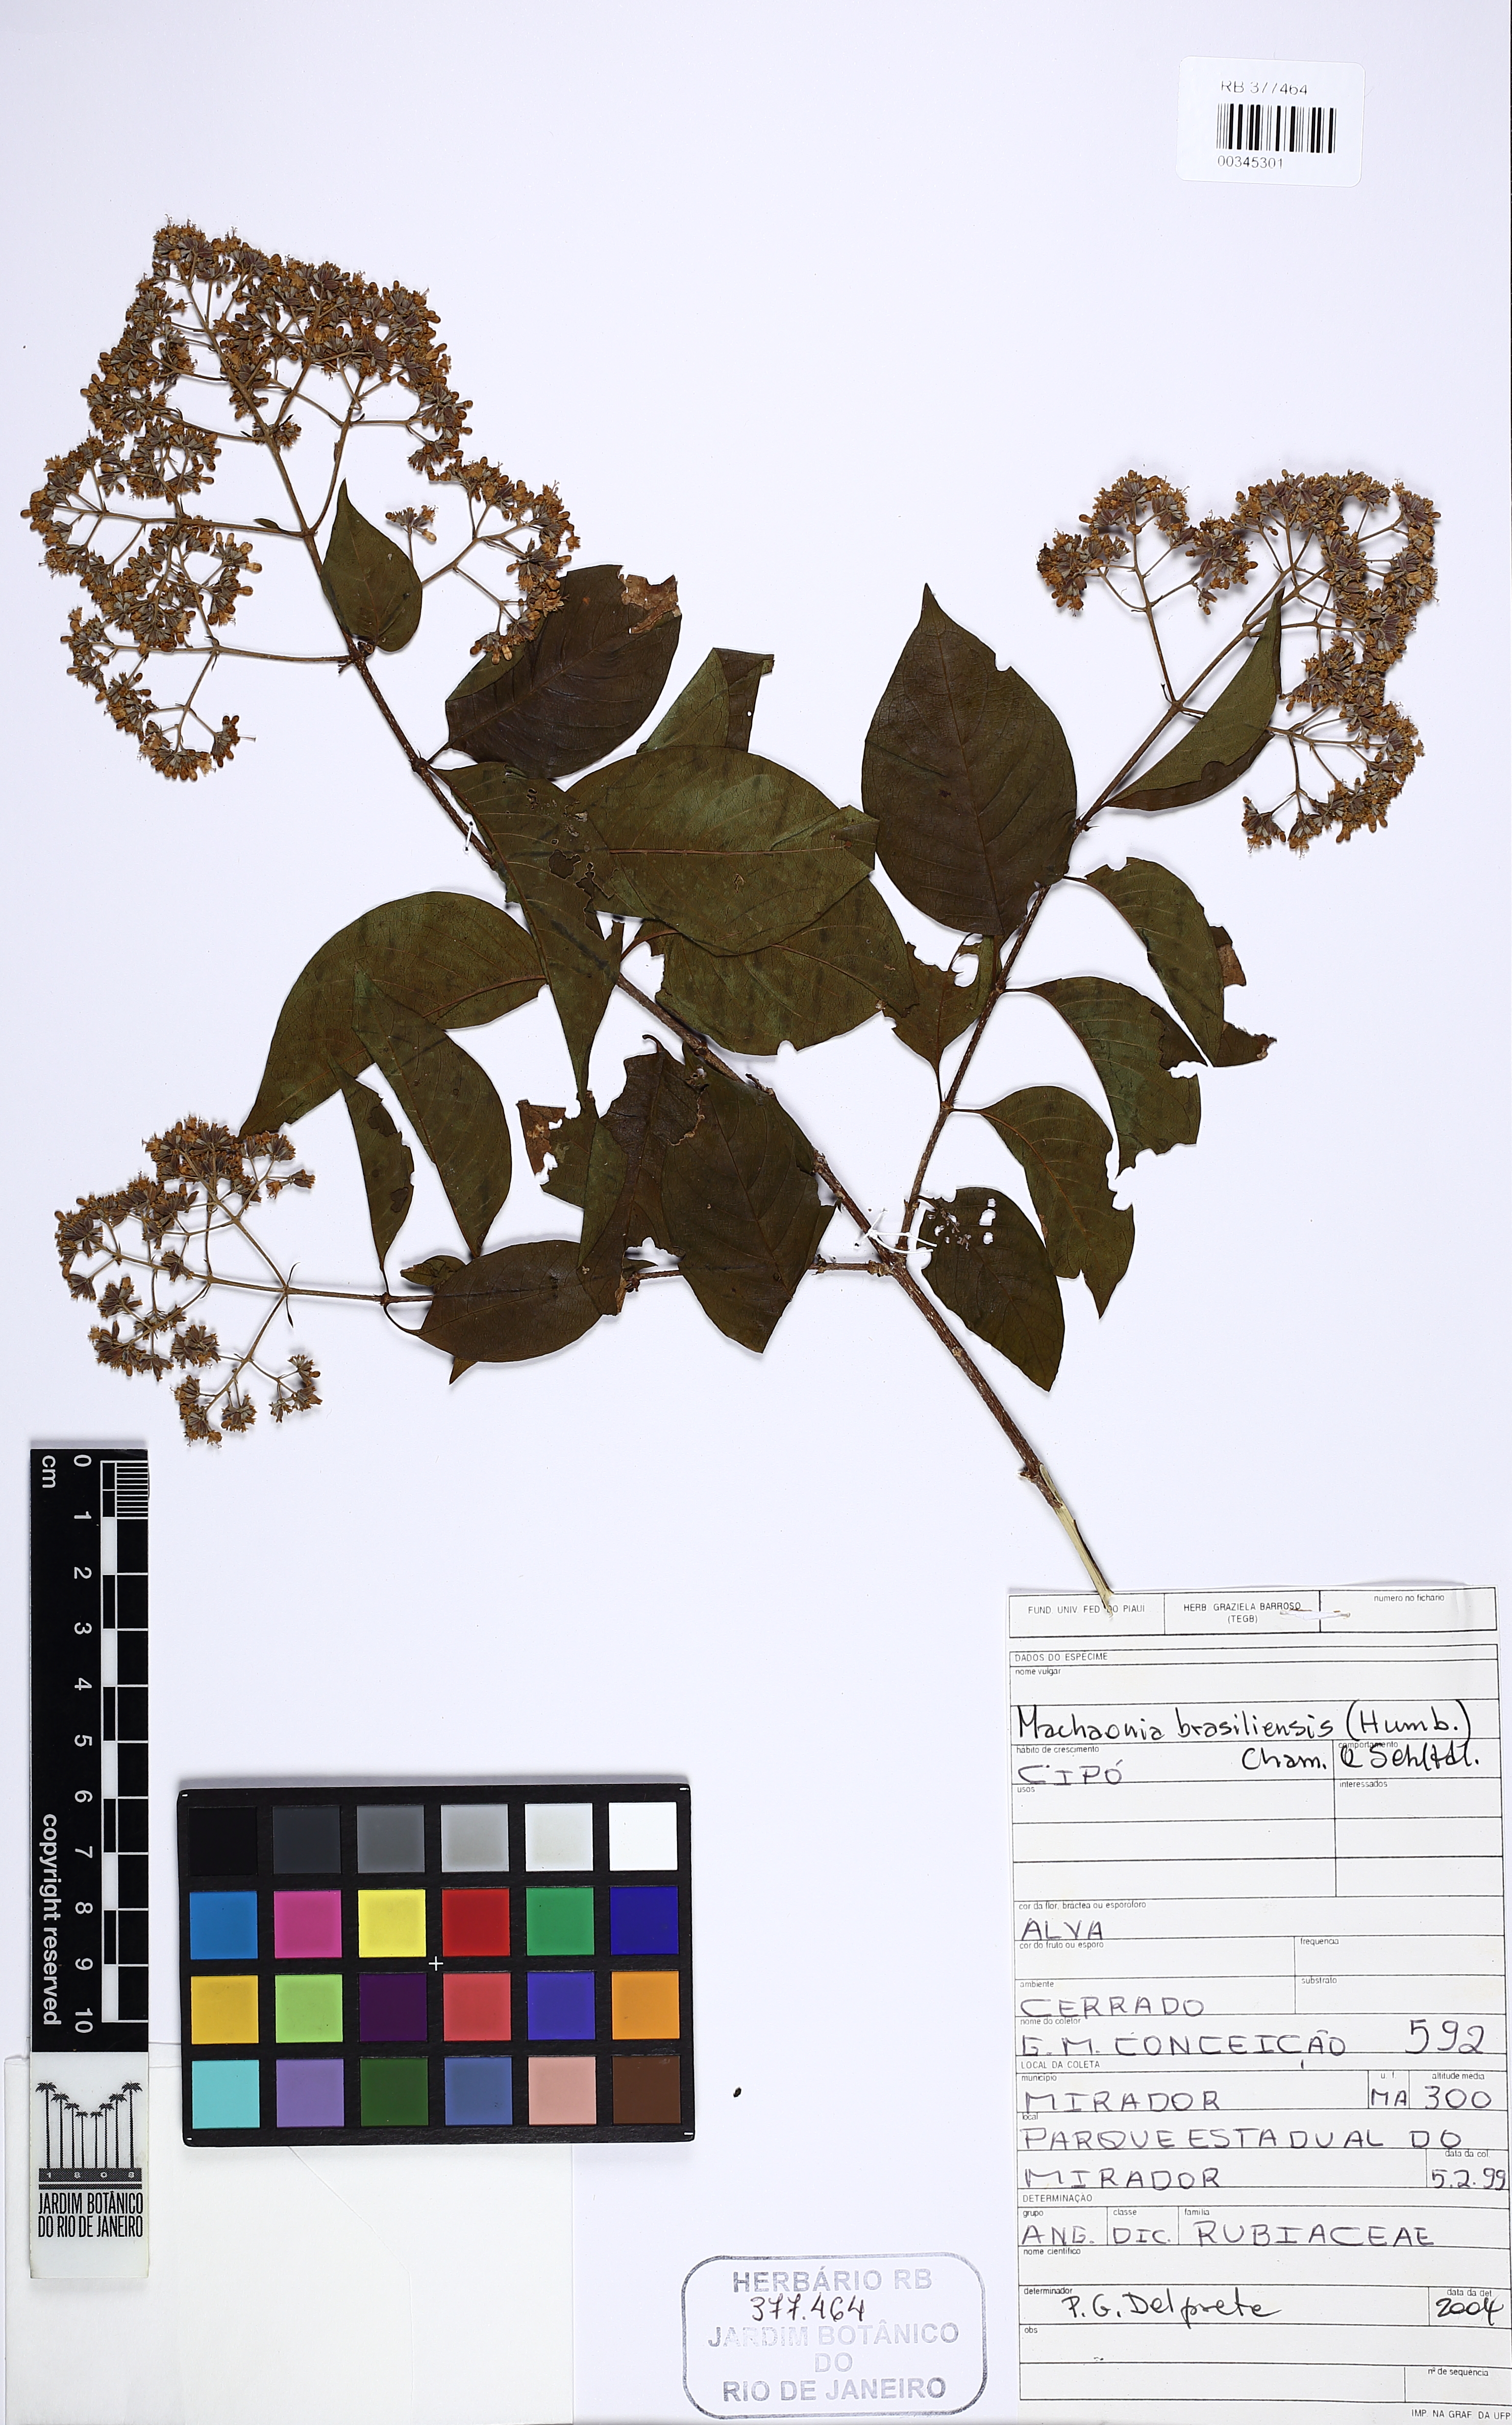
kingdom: Plantae
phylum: Tracheophyta
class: Magnoliopsida
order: Gentianales
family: Rubiaceae
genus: Machaonia
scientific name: Machaonia brasiliensis
